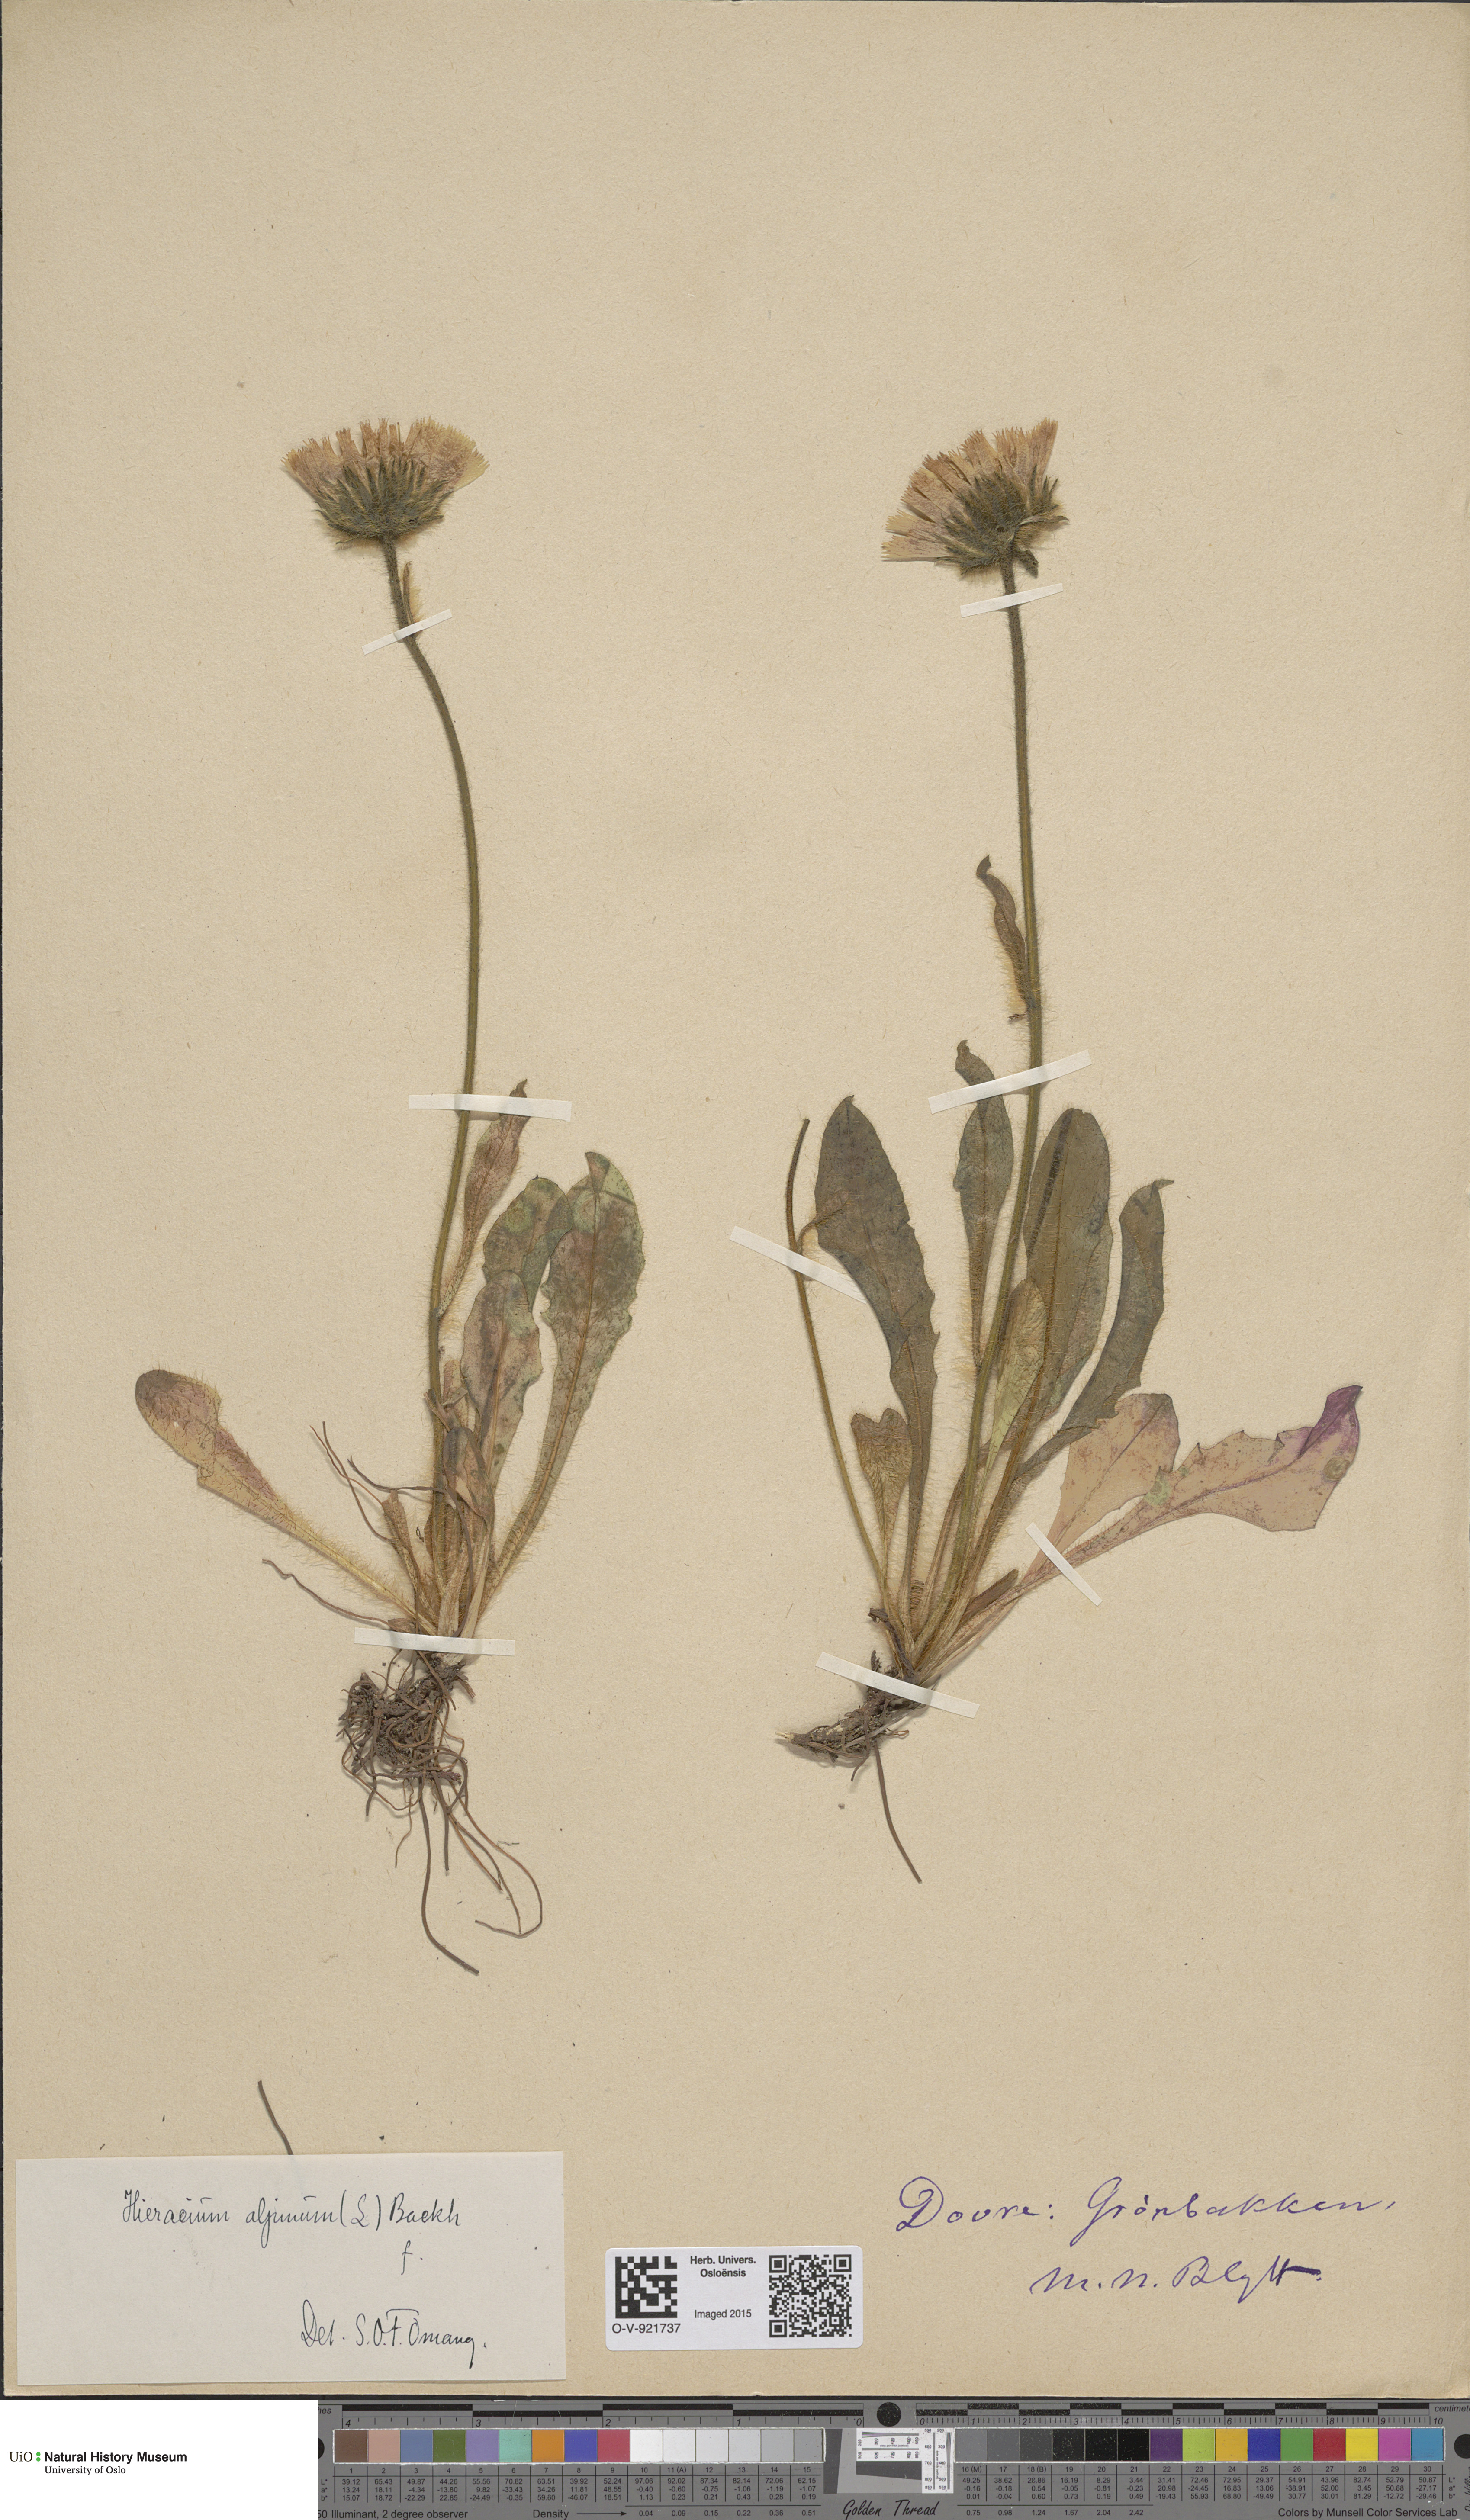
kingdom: Plantae
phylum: Tracheophyta
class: Magnoliopsida
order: Asterales
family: Asteraceae
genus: Hieracium
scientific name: Hieracium alpinum
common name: Alpine hawkweed
